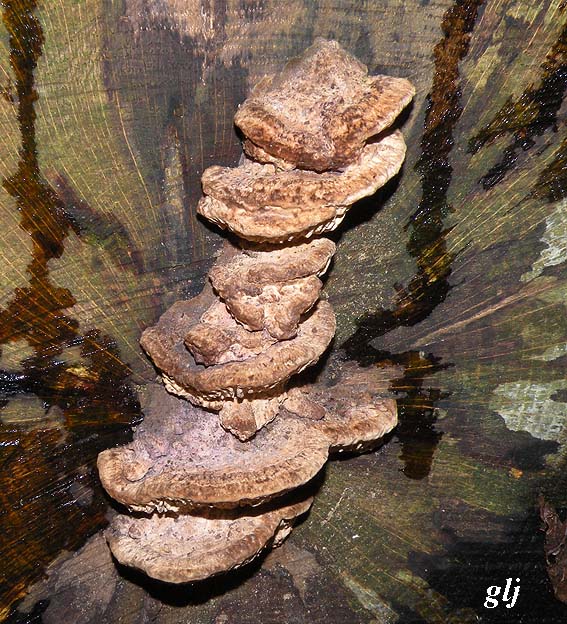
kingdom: Fungi
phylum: Basidiomycota
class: Agaricomycetes
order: Polyporales
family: Fomitopsidaceae
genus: Daedalea
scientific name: Daedalea quercina
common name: ege-labyrintsvamp
